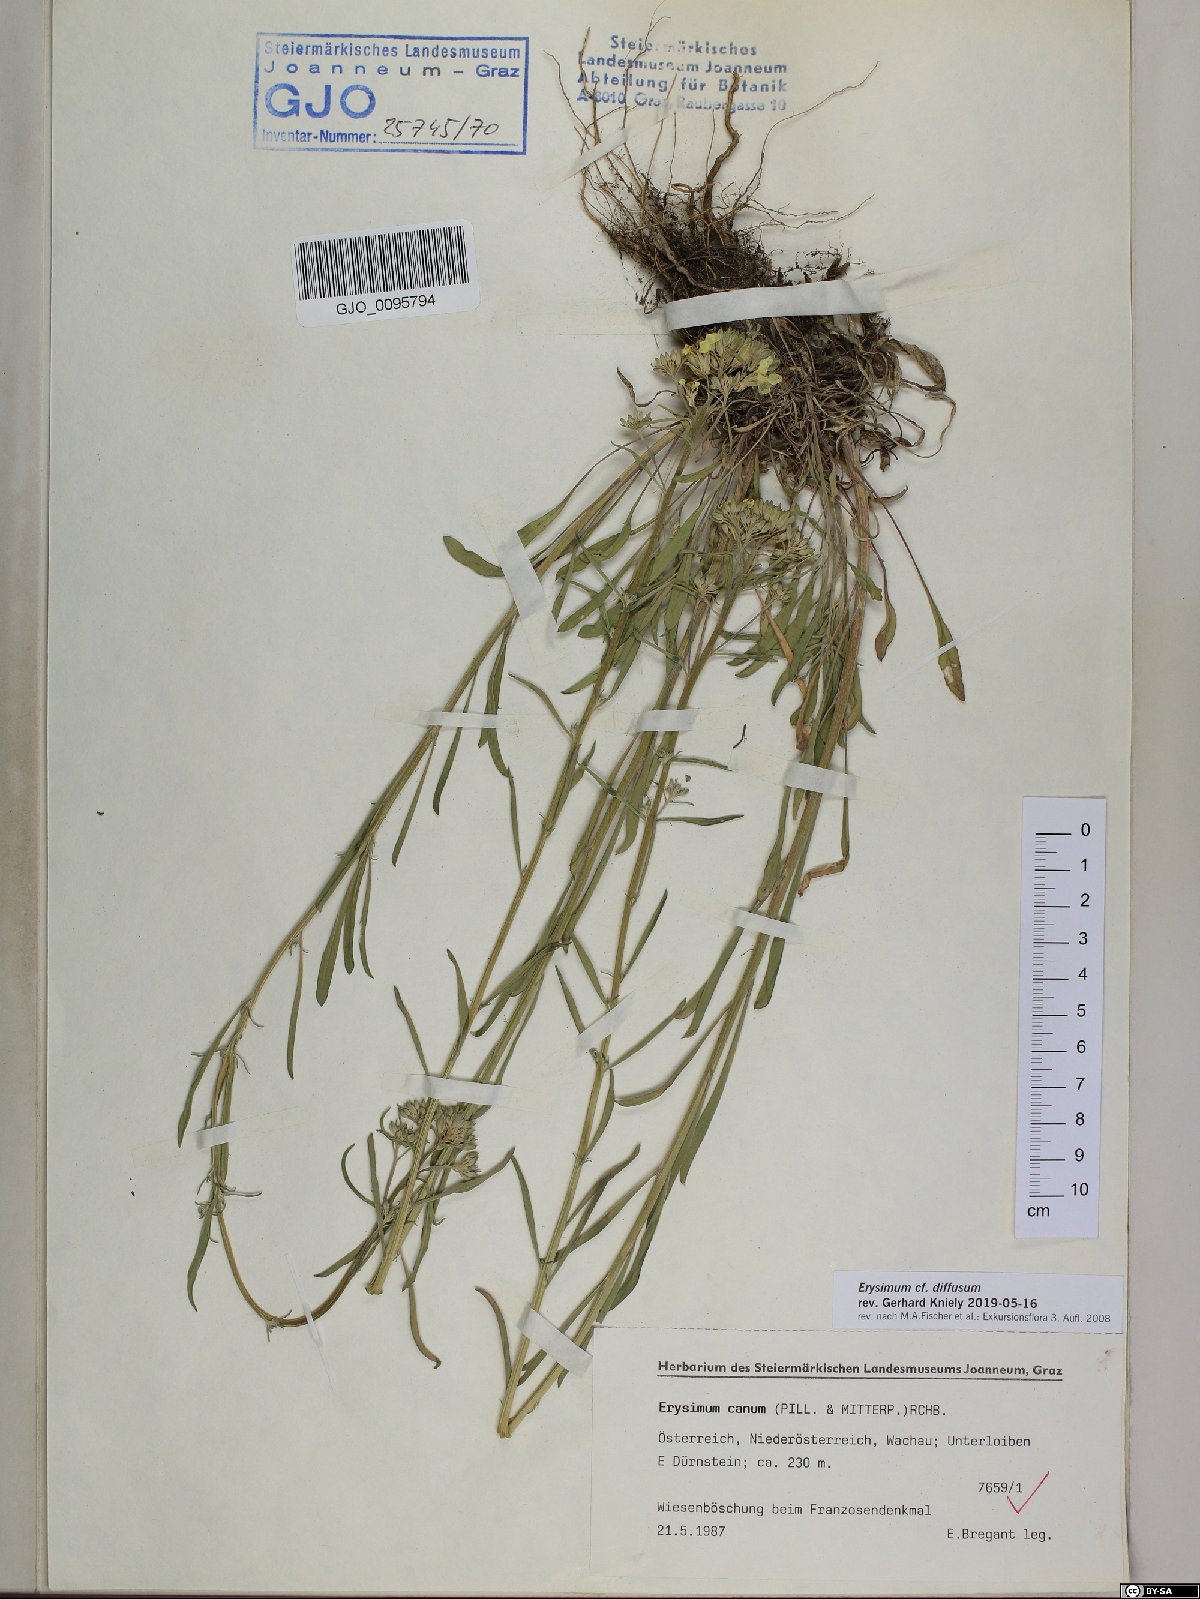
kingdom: Plantae
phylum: Tracheophyta
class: Magnoliopsida
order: Brassicales
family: Brassicaceae
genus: Erysimum
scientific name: Erysimum diffusum
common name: Diffuse wallflower
